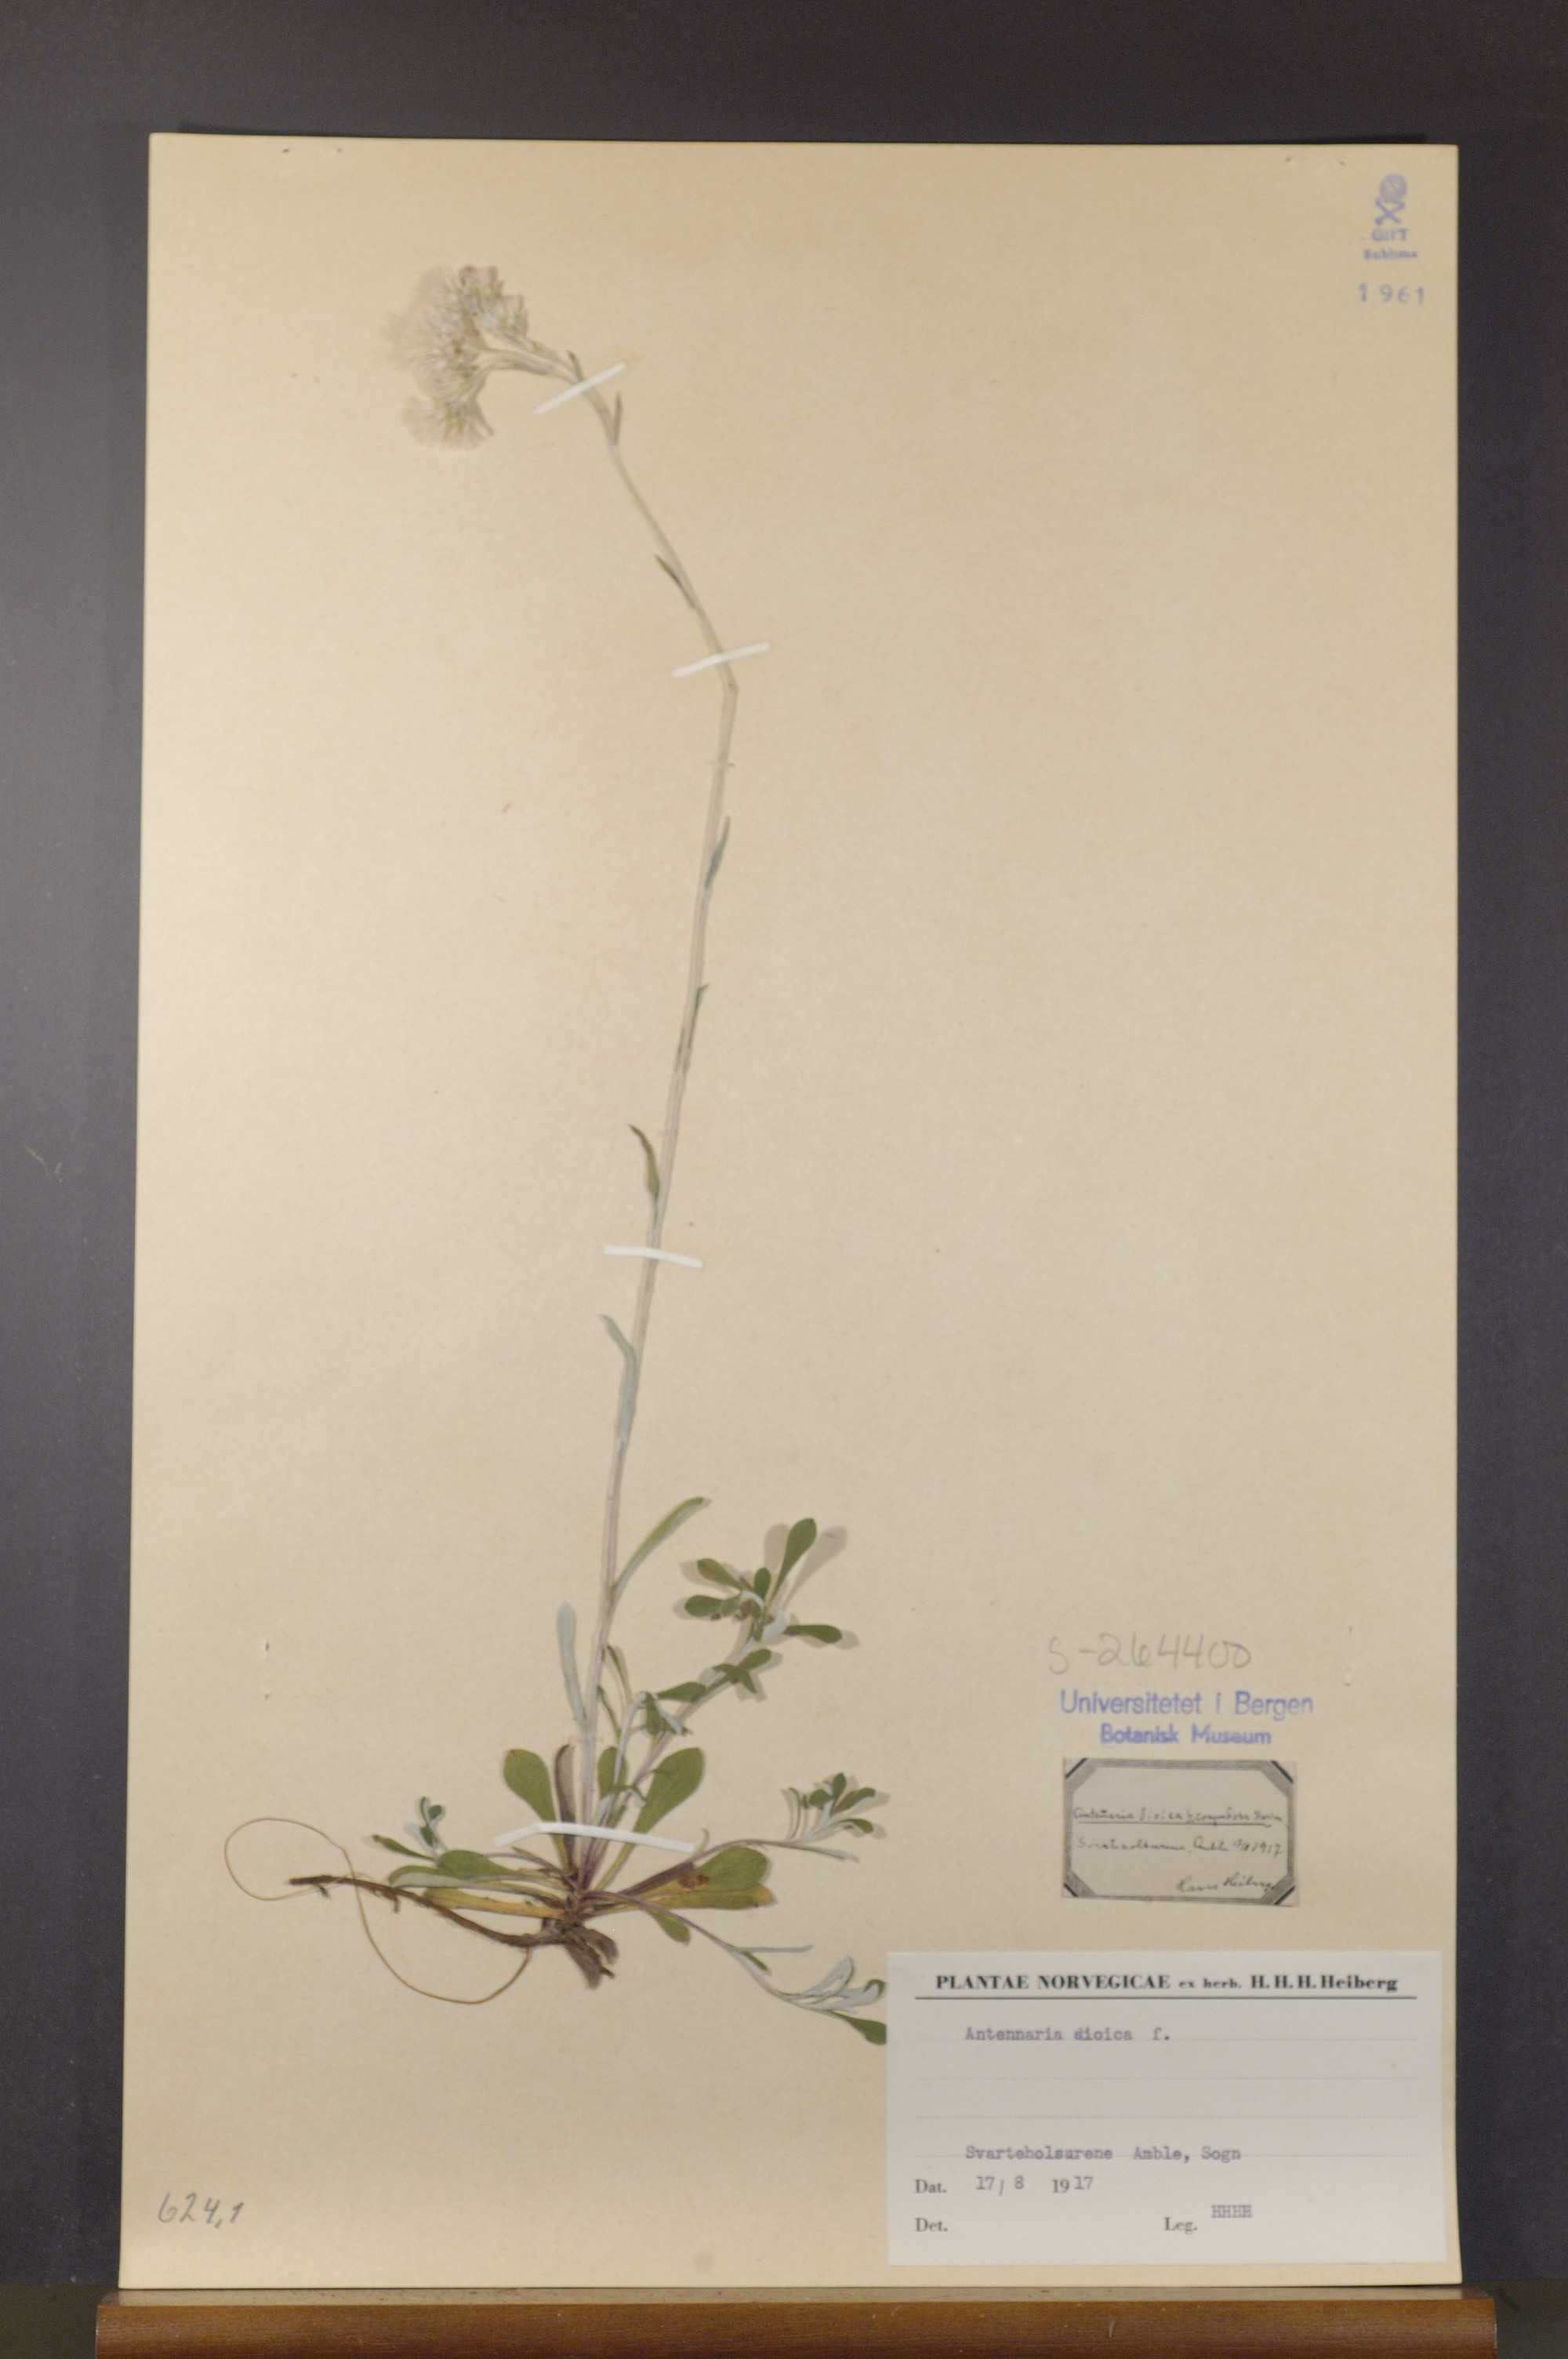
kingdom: Plantae
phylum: Tracheophyta
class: Magnoliopsida
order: Asterales
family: Asteraceae
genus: Antennaria
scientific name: Antennaria dioica
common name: Mountain everlasting
